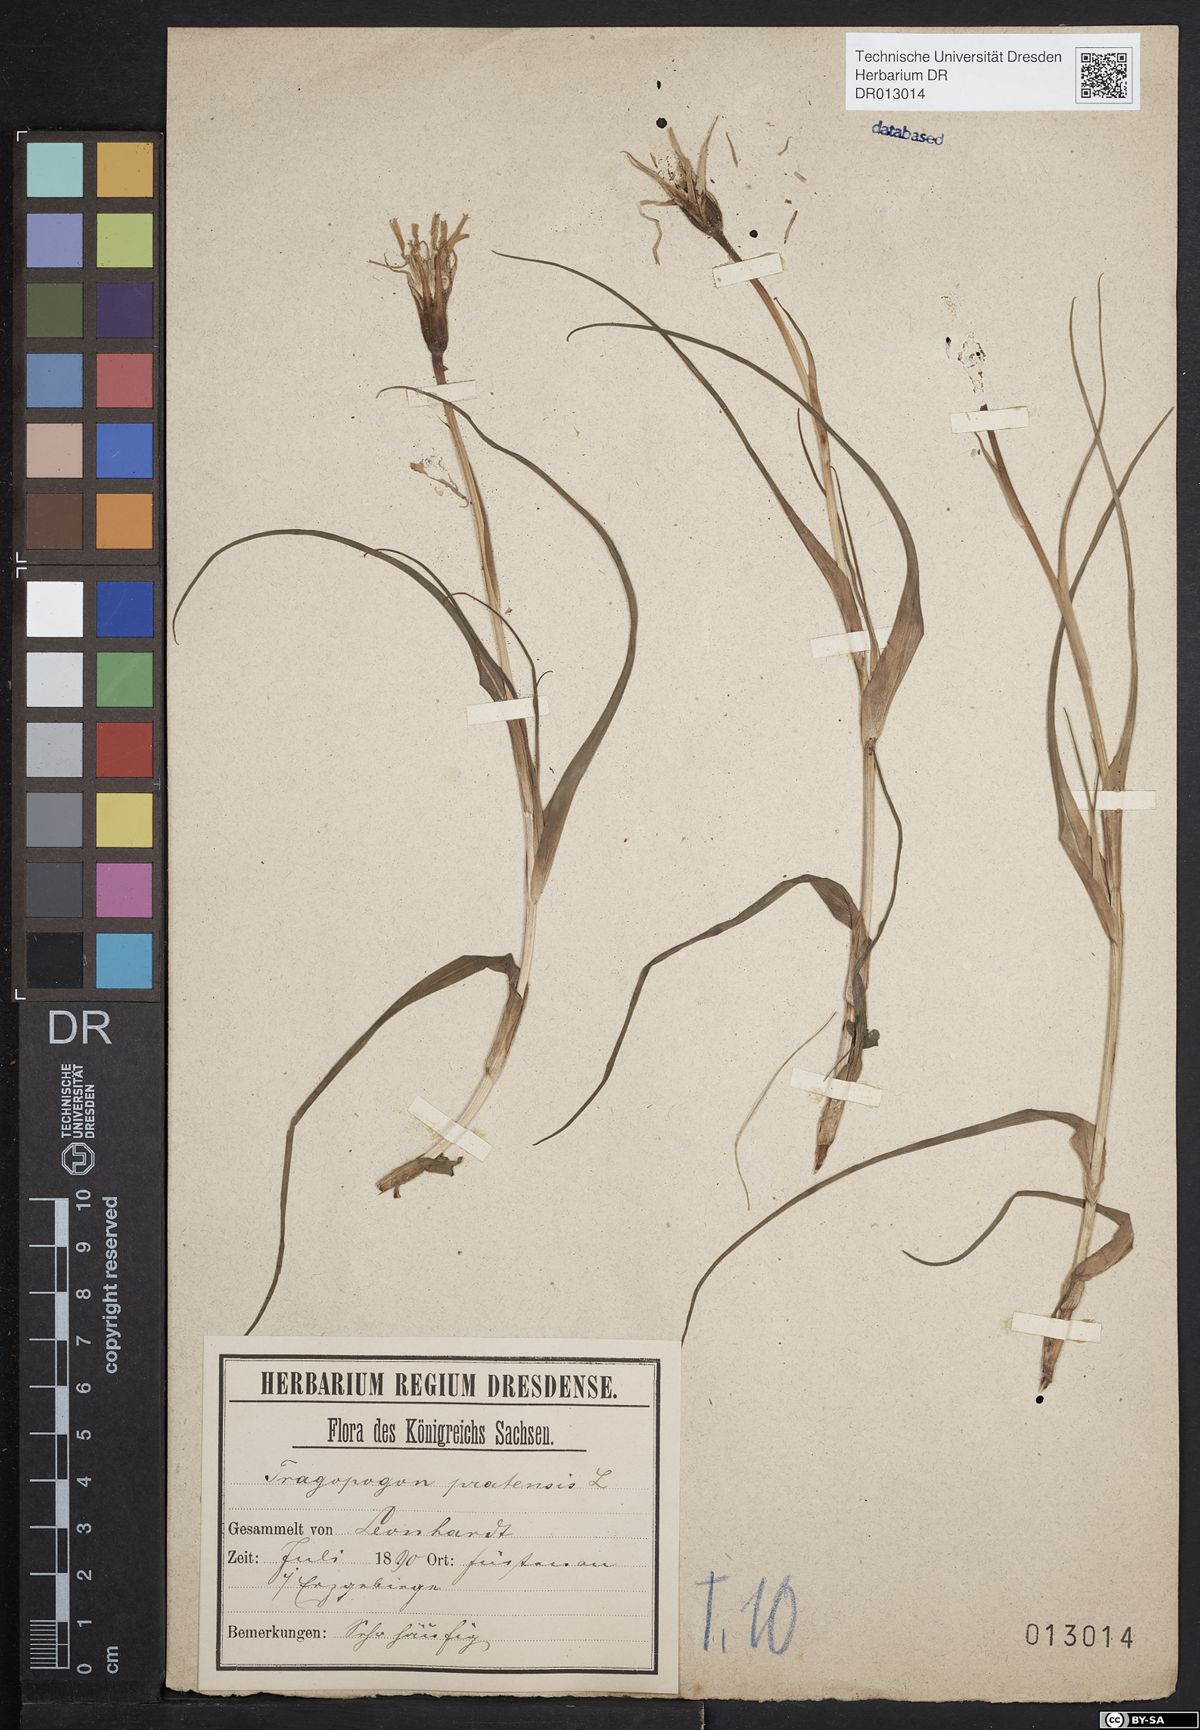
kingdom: Plantae
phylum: Tracheophyta
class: Magnoliopsida
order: Asterales
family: Asteraceae
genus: Tragopogon
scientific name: Tragopogon pratensis
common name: Goat's-beard
